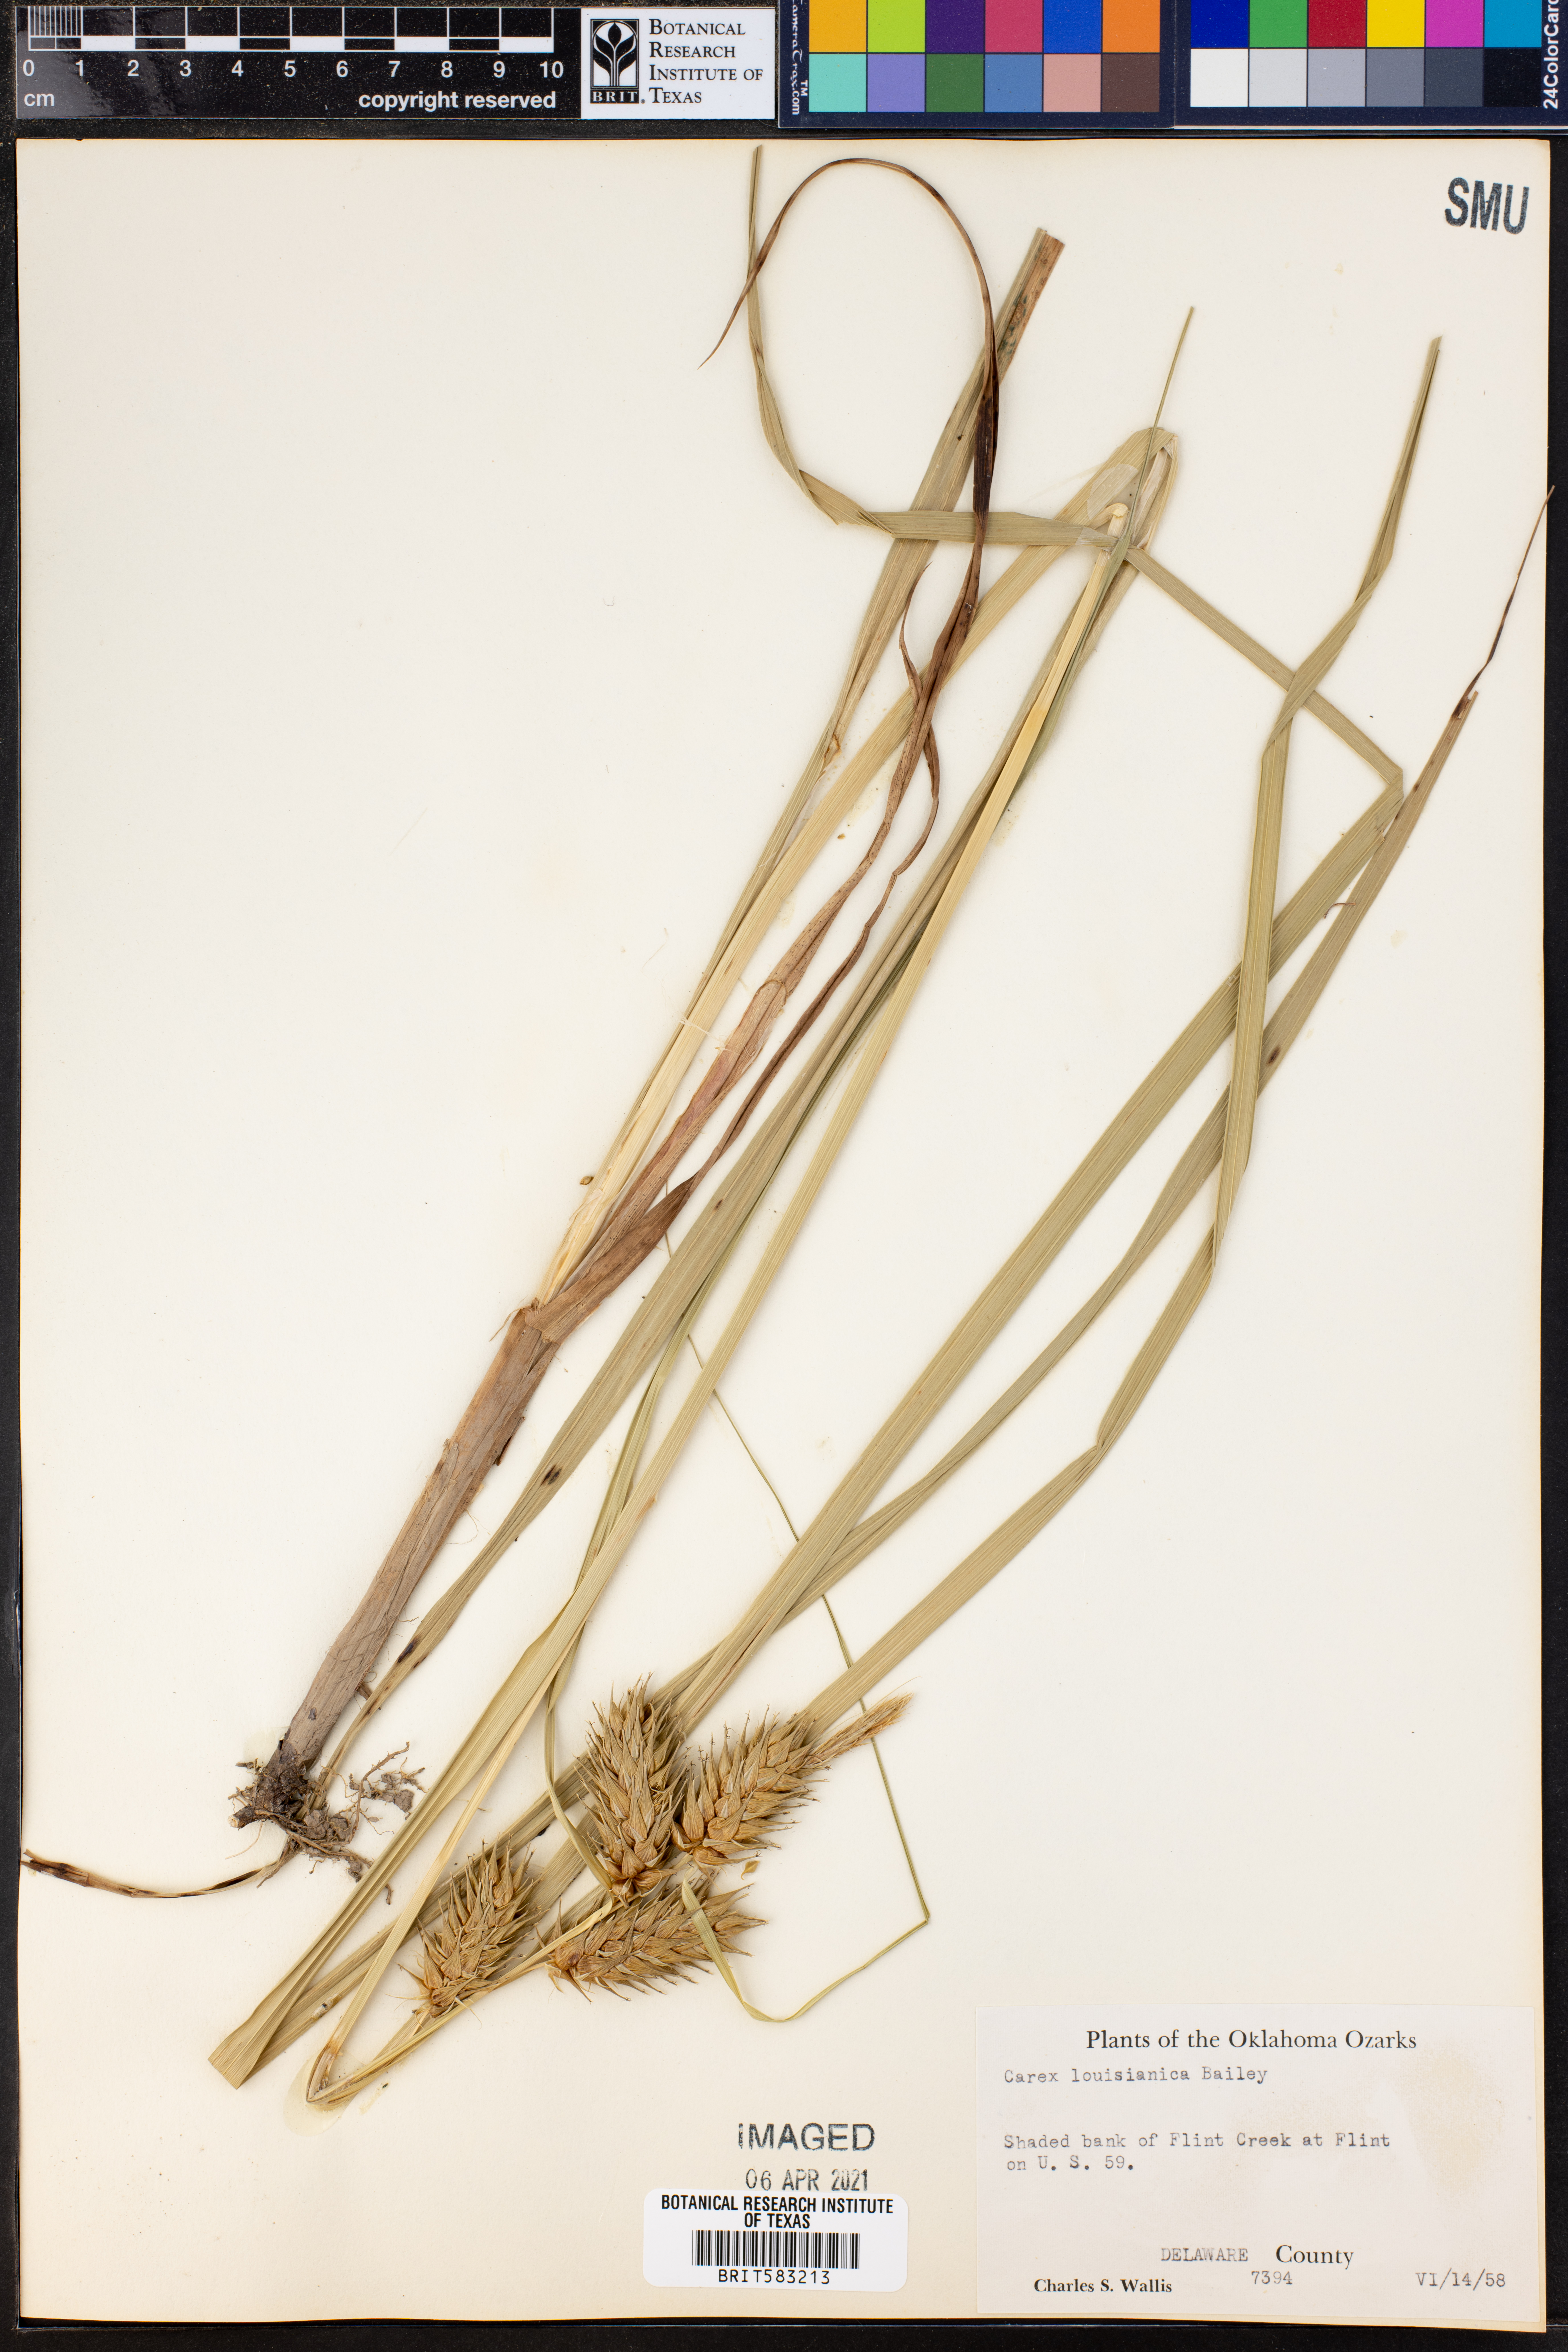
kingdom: Plantae
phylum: Tracheophyta
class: Liliopsida
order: Poales
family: Cyperaceae
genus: Carex
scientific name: Carex louisianica
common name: Louisiana sedge
